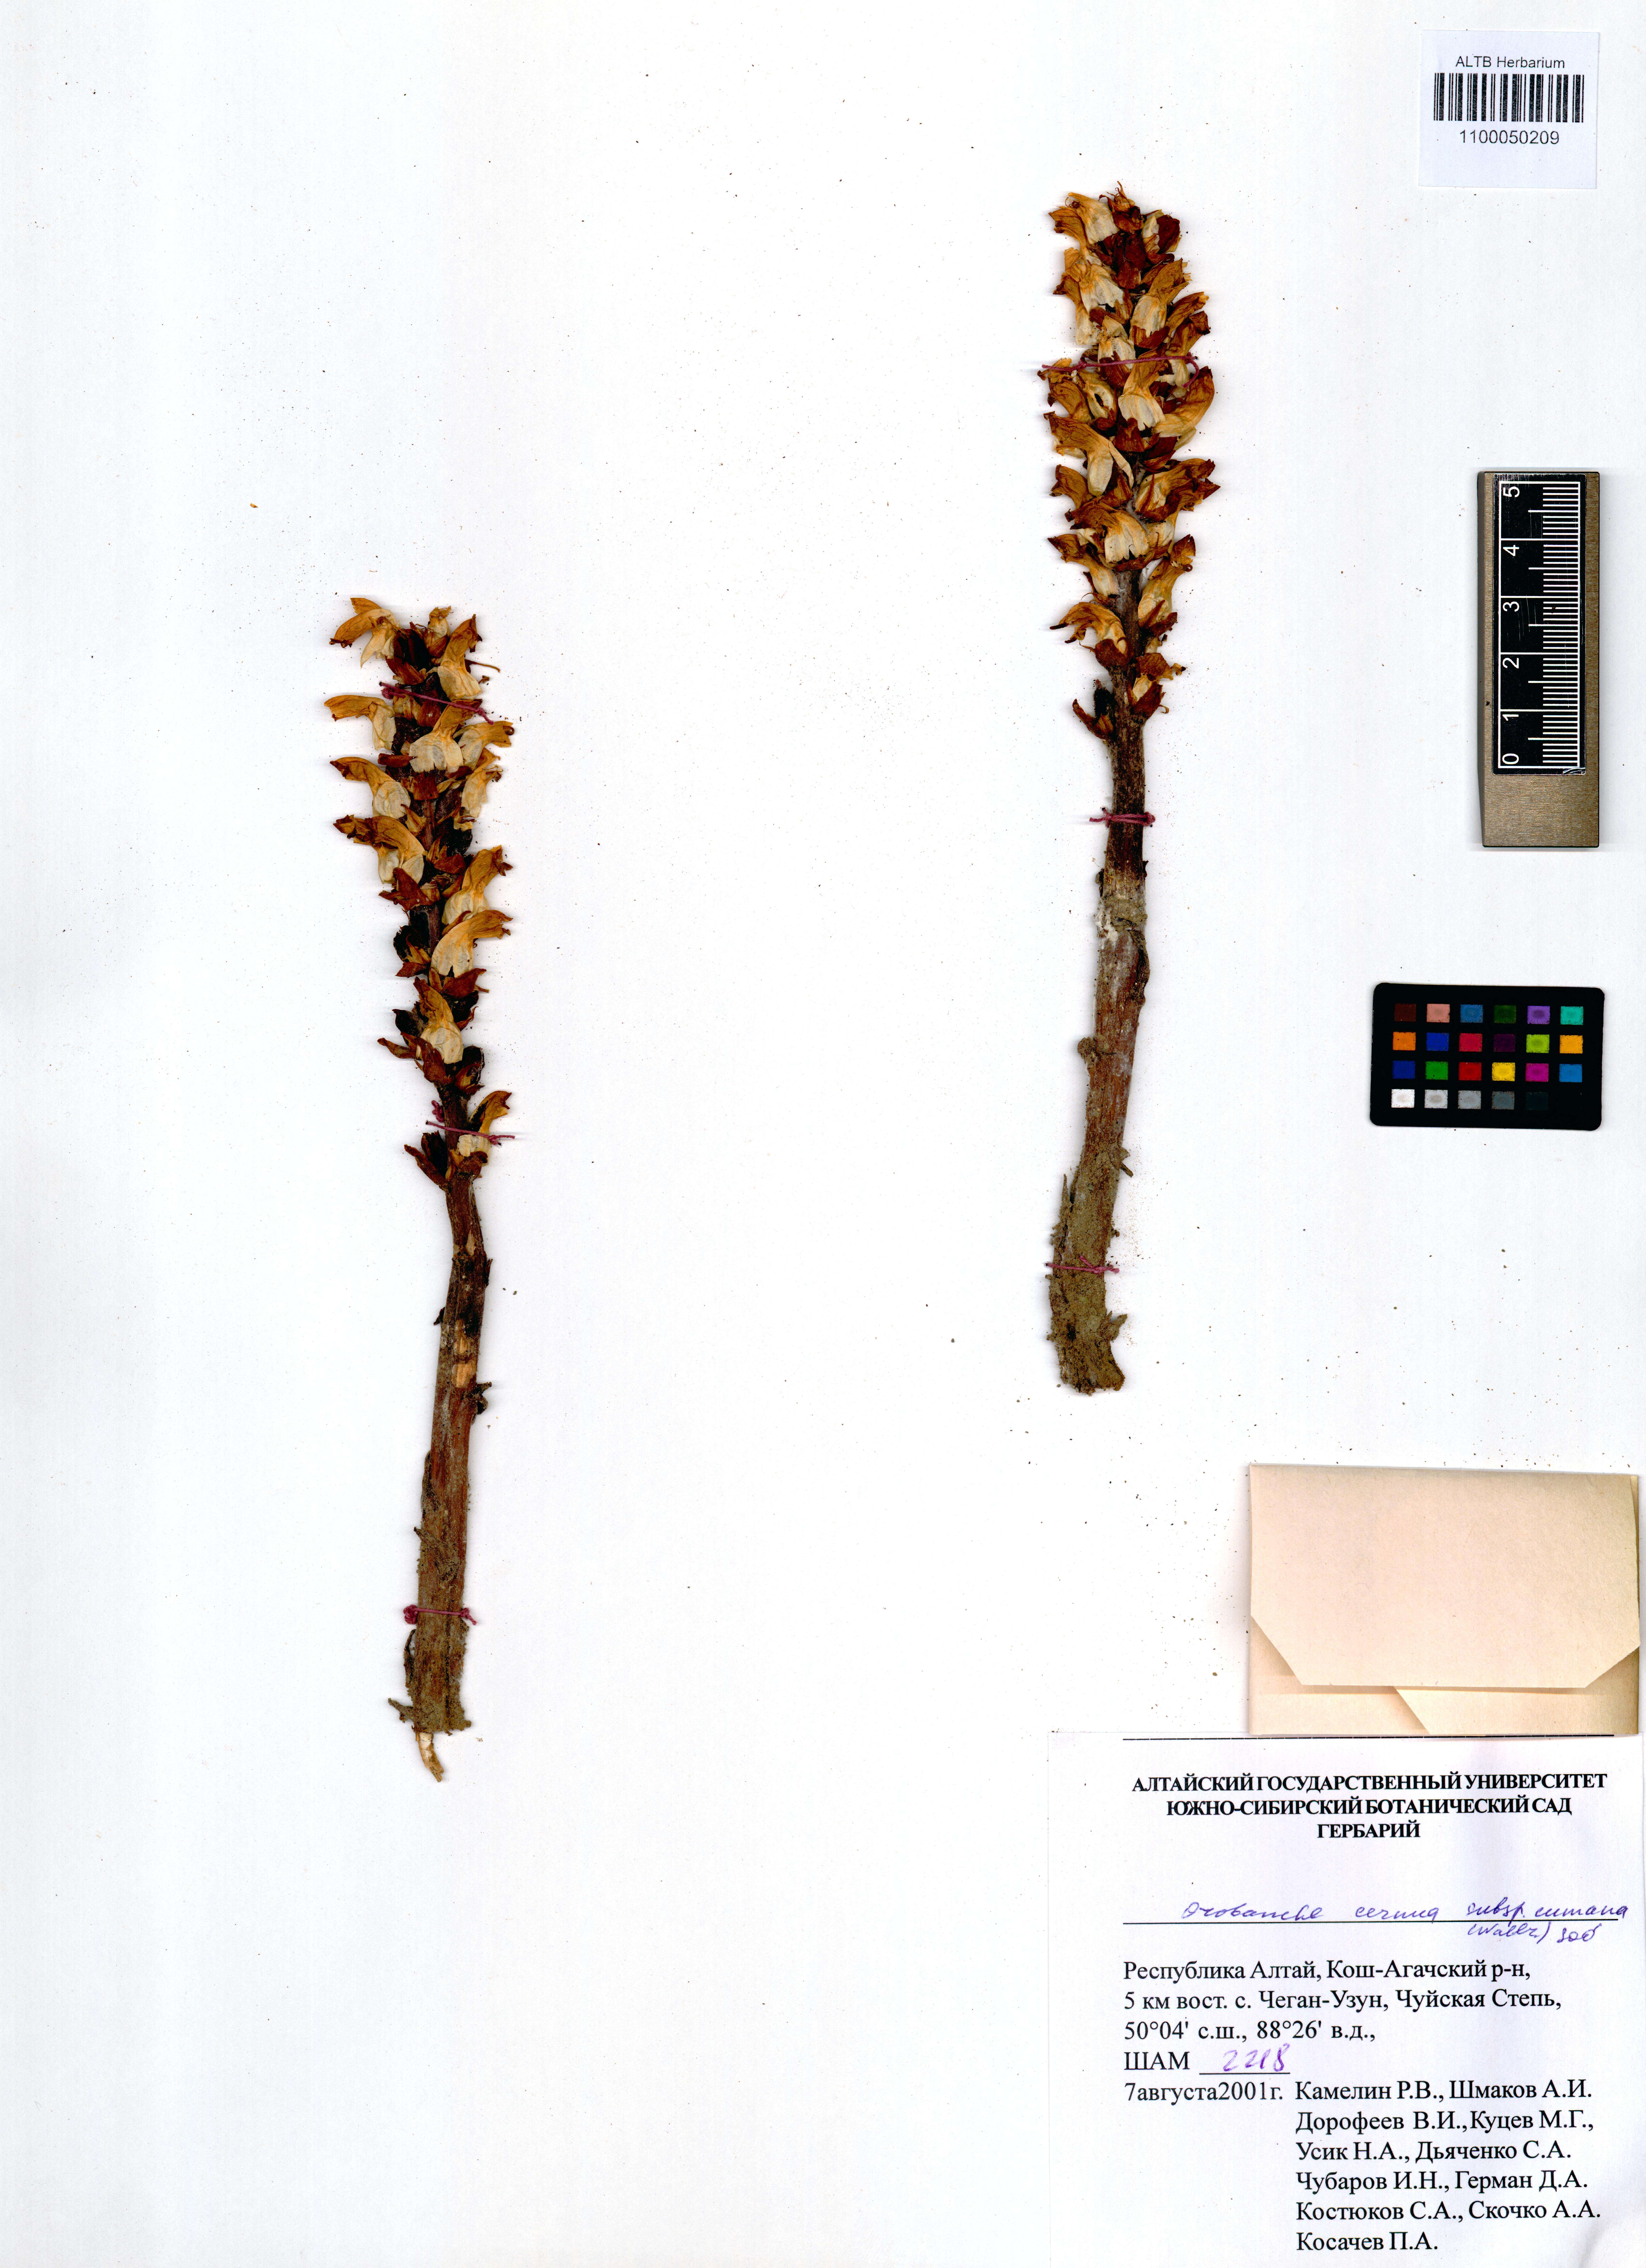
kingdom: Plantae
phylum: Tracheophyta
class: Magnoliopsida
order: Lamiales
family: Orobanchaceae
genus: Orobanche
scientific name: Orobanche cumana
